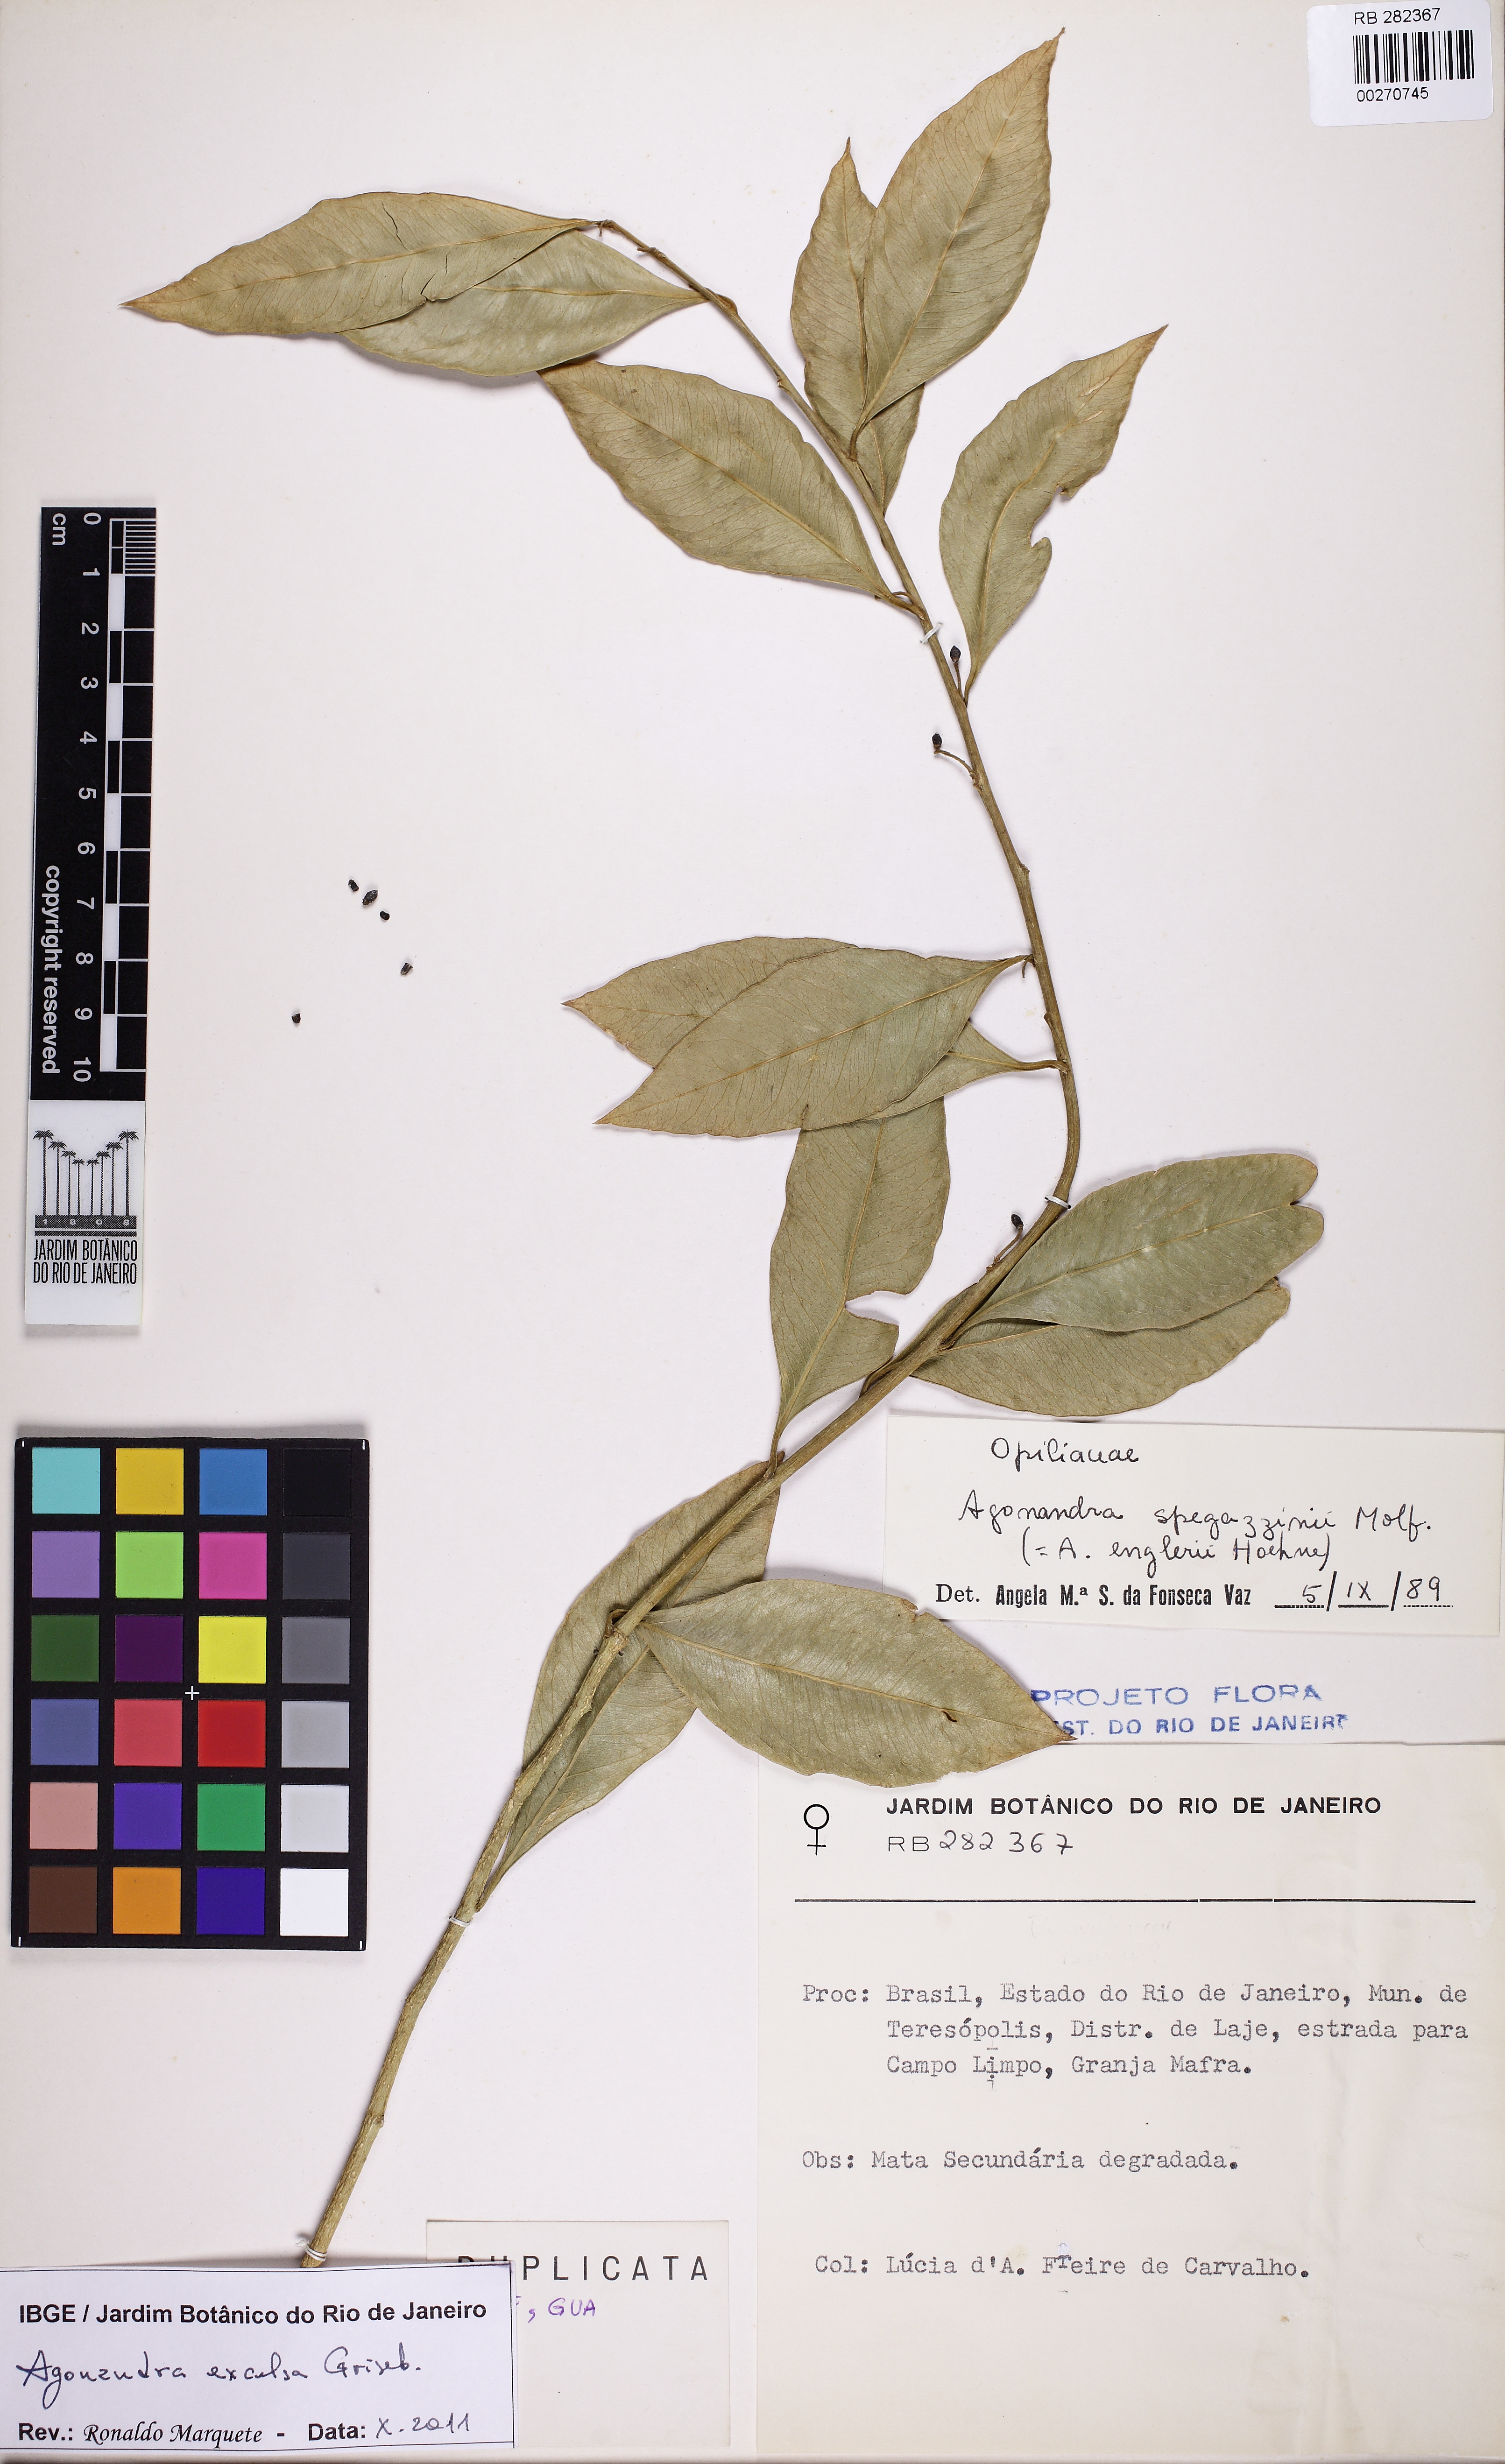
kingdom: Plantae
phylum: Tracheophyta
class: Magnoliopsida
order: Santalales
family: Opiliaceae
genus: Agonandra
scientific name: Agonandra excelsa
